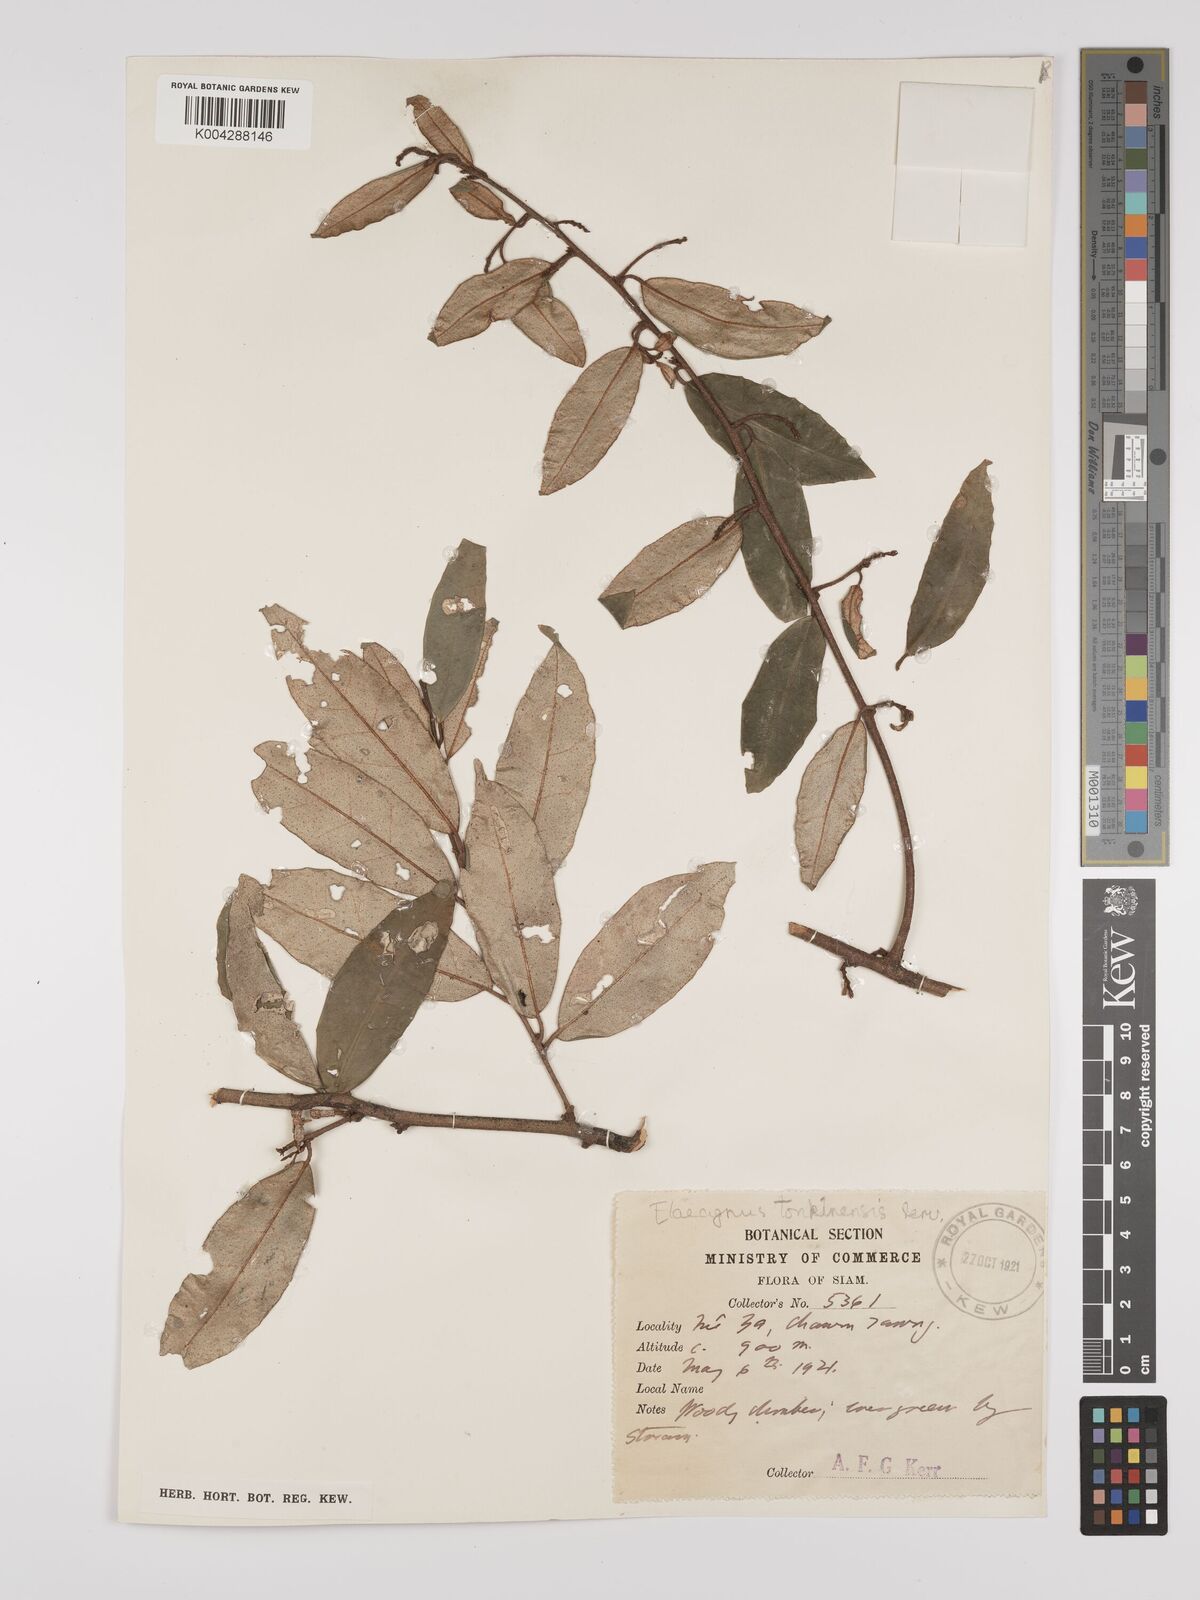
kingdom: Plantae
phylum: Tracheophyta
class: Magnoliopsida
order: Rosales
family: Elaeagnaceae
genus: Elaeagnus
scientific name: Elaeagnus tonkinensis
